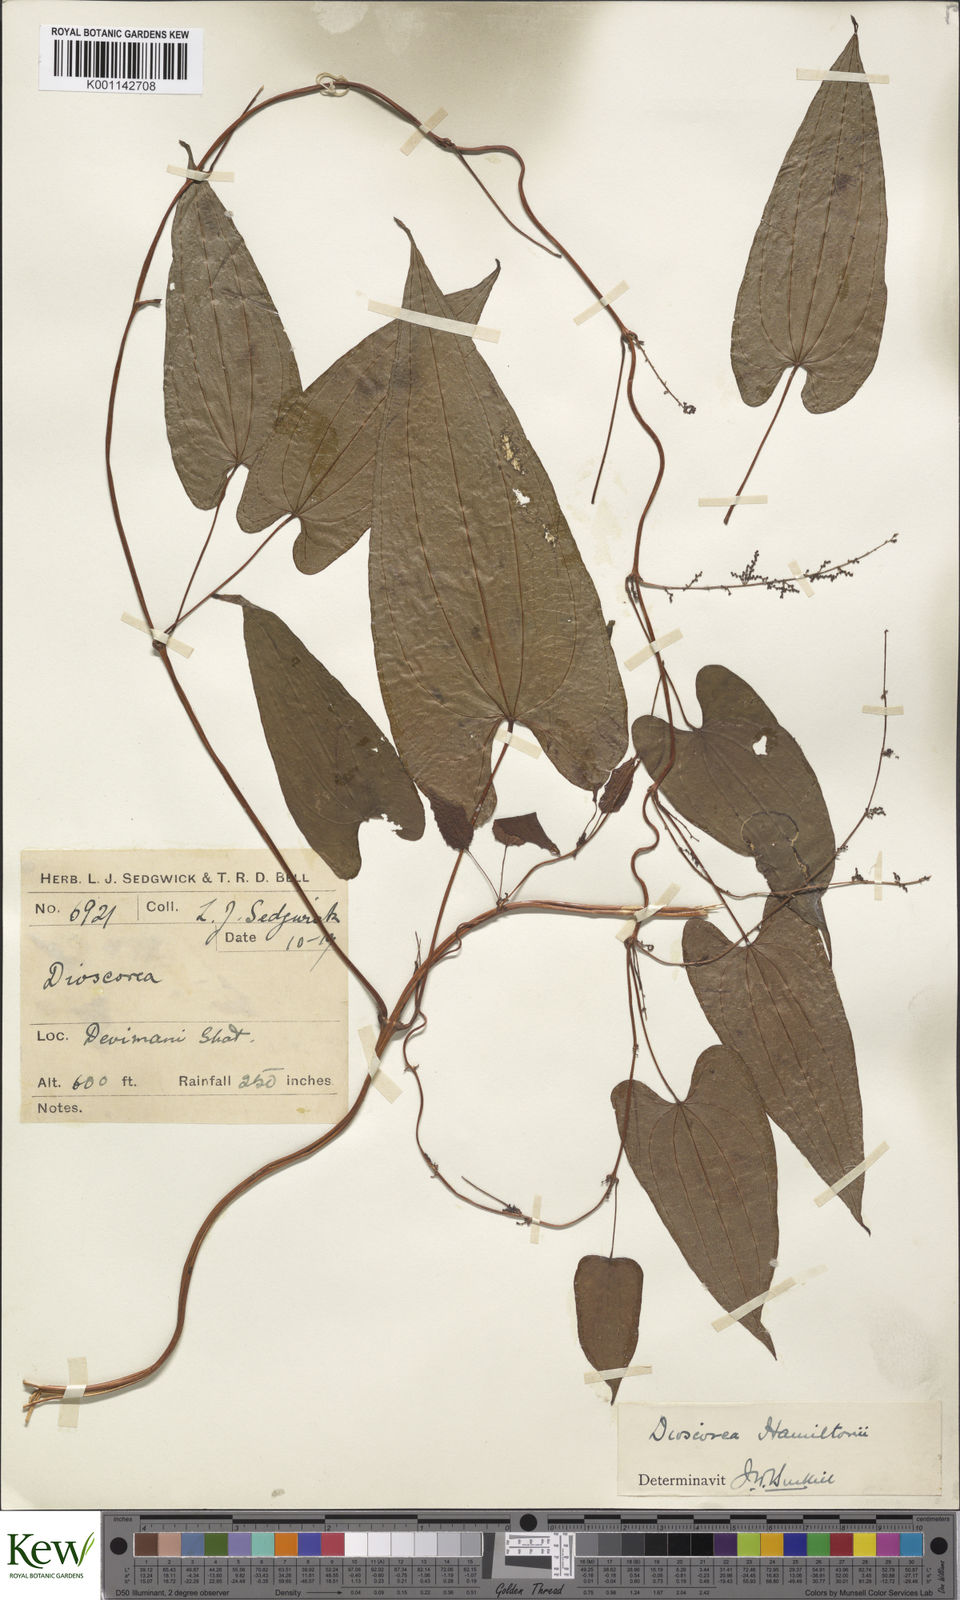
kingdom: Plantae
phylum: Tracheophyta
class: Liliopsida
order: Dioscoreales
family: Dioscoreaceae
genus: Dioscorea
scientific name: Dioscorea hamiltonii
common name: Mountain yam
